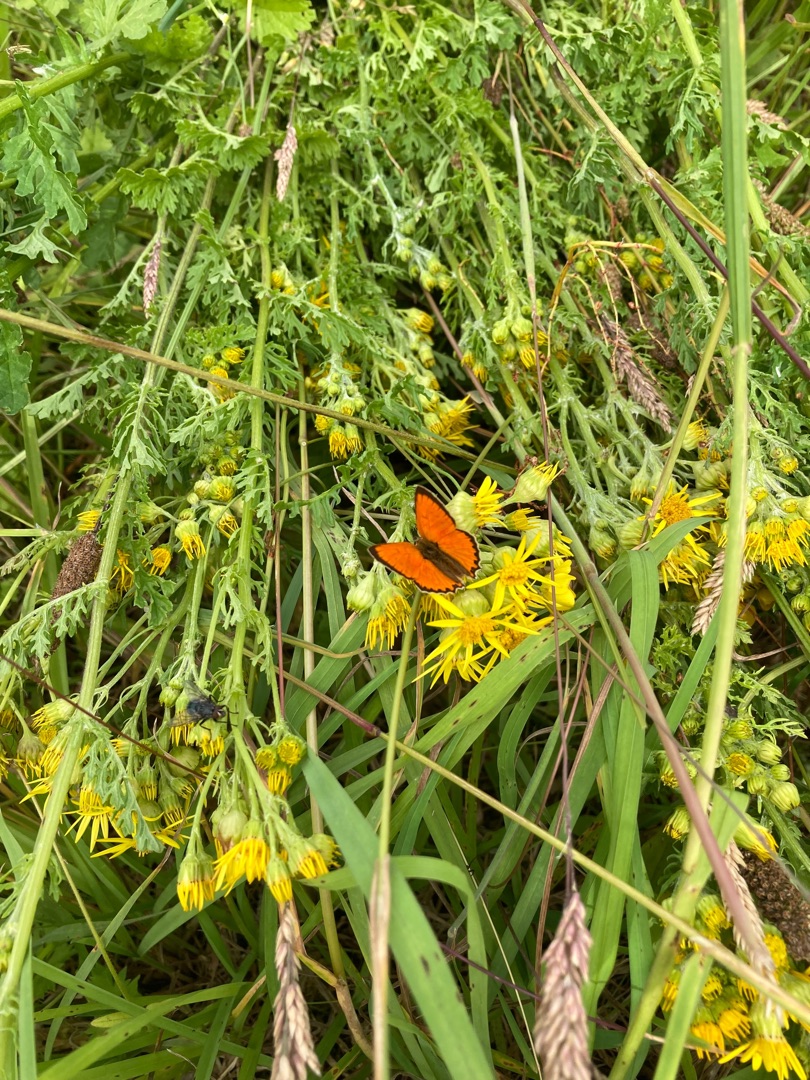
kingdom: Animalia
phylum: Arthropoda
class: Insecta
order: Lepidoptera
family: Lycaenidae
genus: Lycaena
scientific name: Lycaena virgaureae
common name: Dukatsommerfugl
